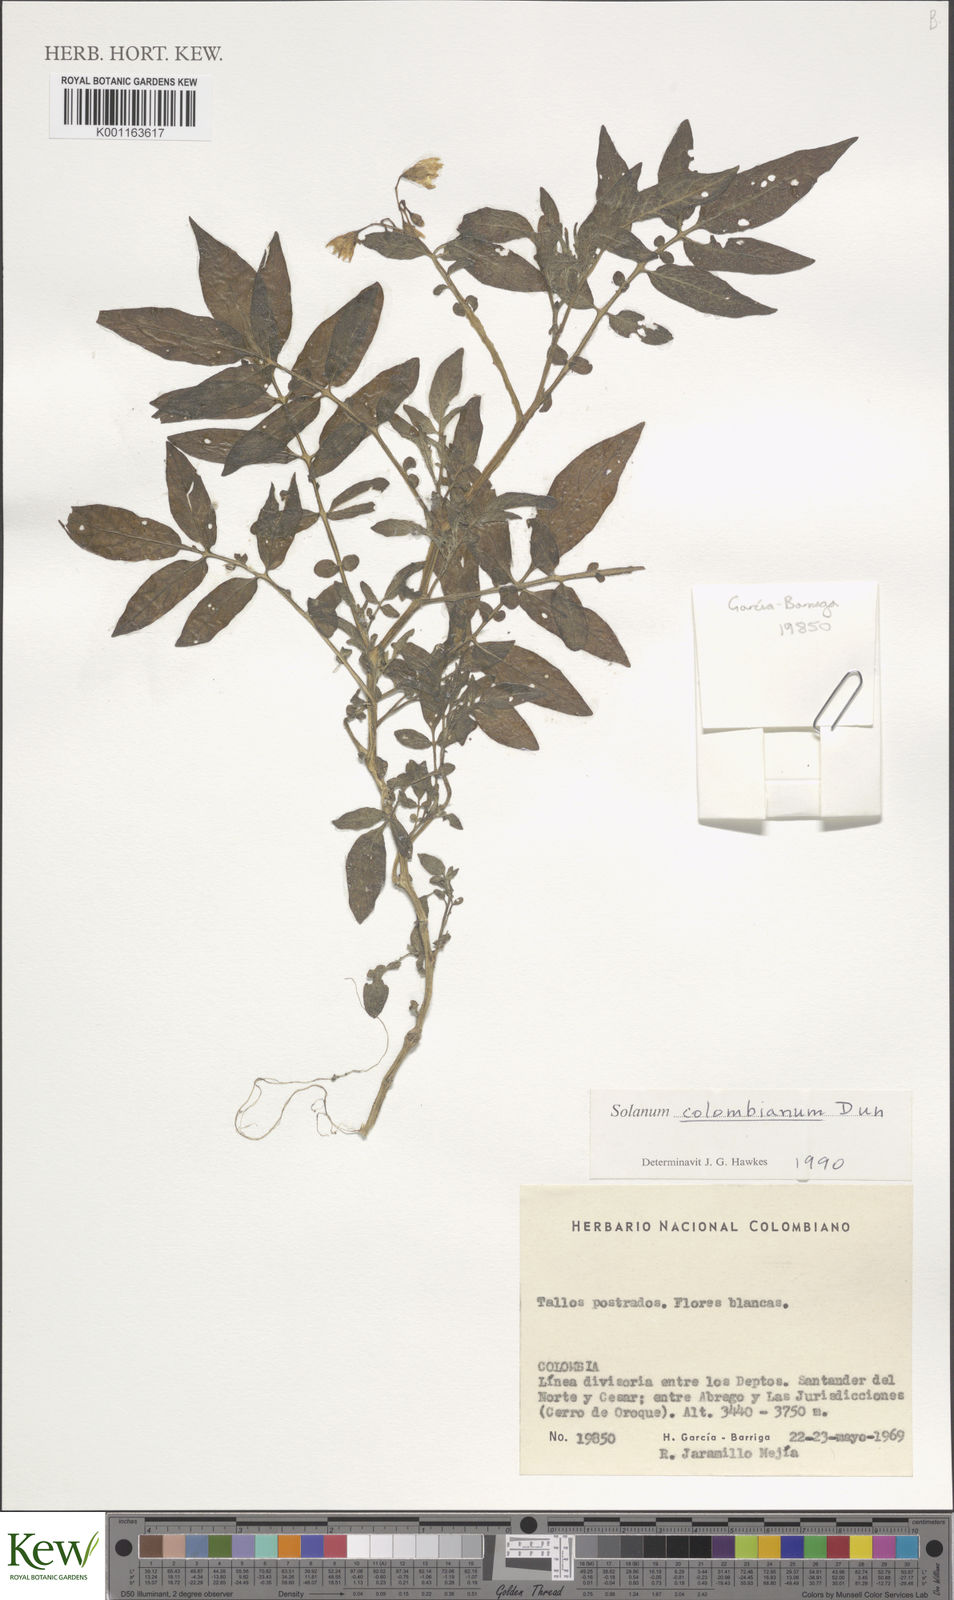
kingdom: Plantae
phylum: Tracheophyta
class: Magnoliopsida
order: Solanales
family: Solanaceae
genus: Solanum
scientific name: Solanum colombianum
